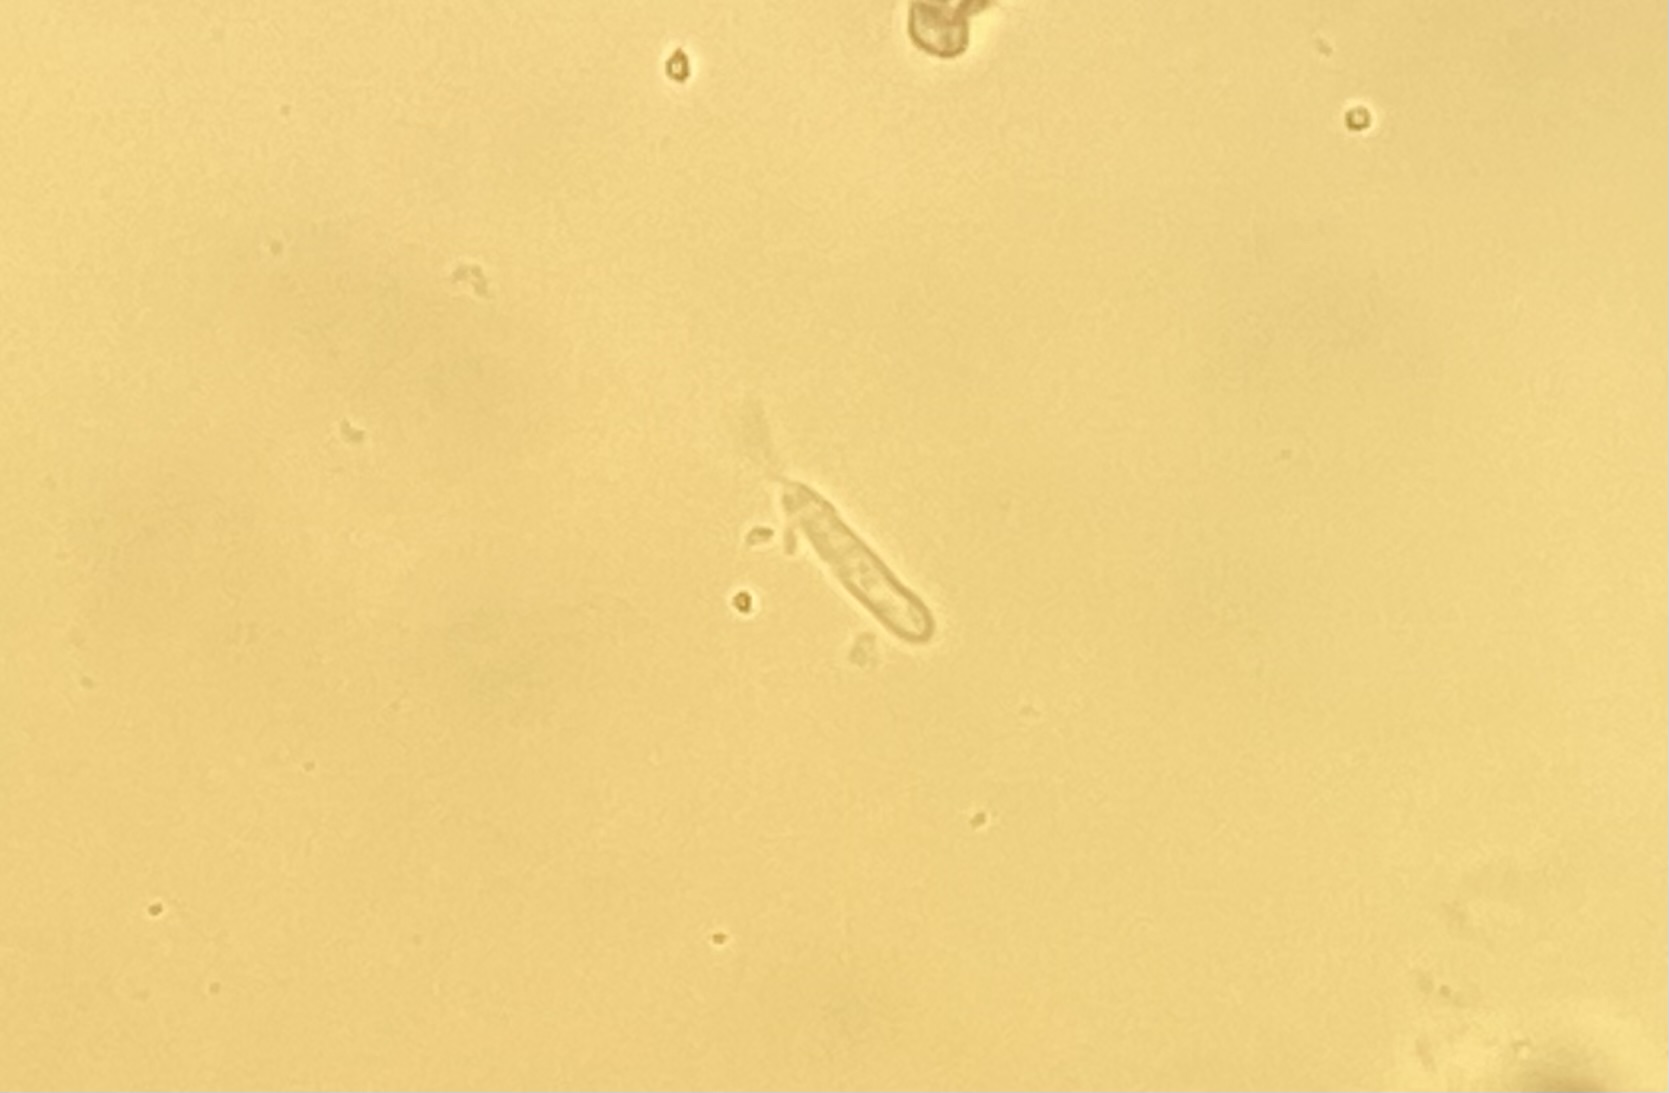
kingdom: Fungi
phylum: Ascomycota
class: Leotiomycetes
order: Helotiales
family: Cenangiaceae
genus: Trochila
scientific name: Trochila craterium
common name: vedbend-lågskive
